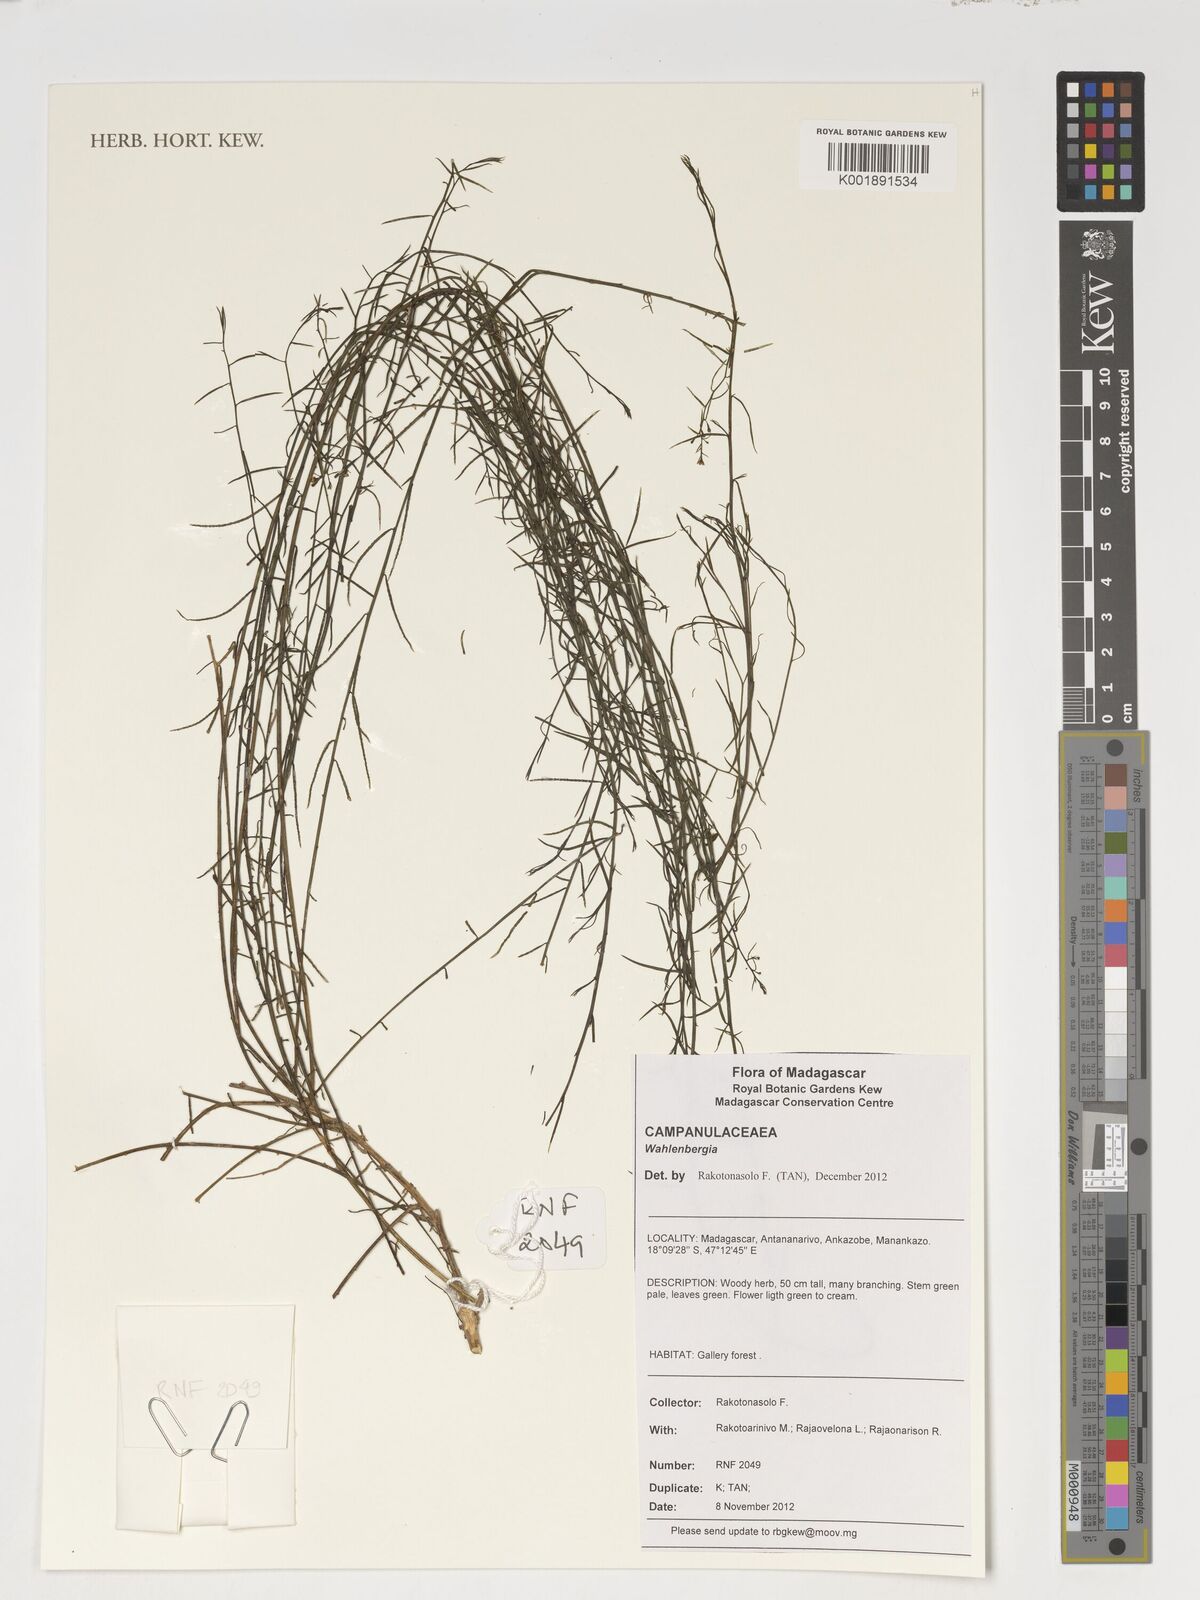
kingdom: Plantae
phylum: Tracheophyta
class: Magnoliopsida
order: Asterales
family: Campanulaceae
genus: Wahlenbergia
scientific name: Wahlenbergia
